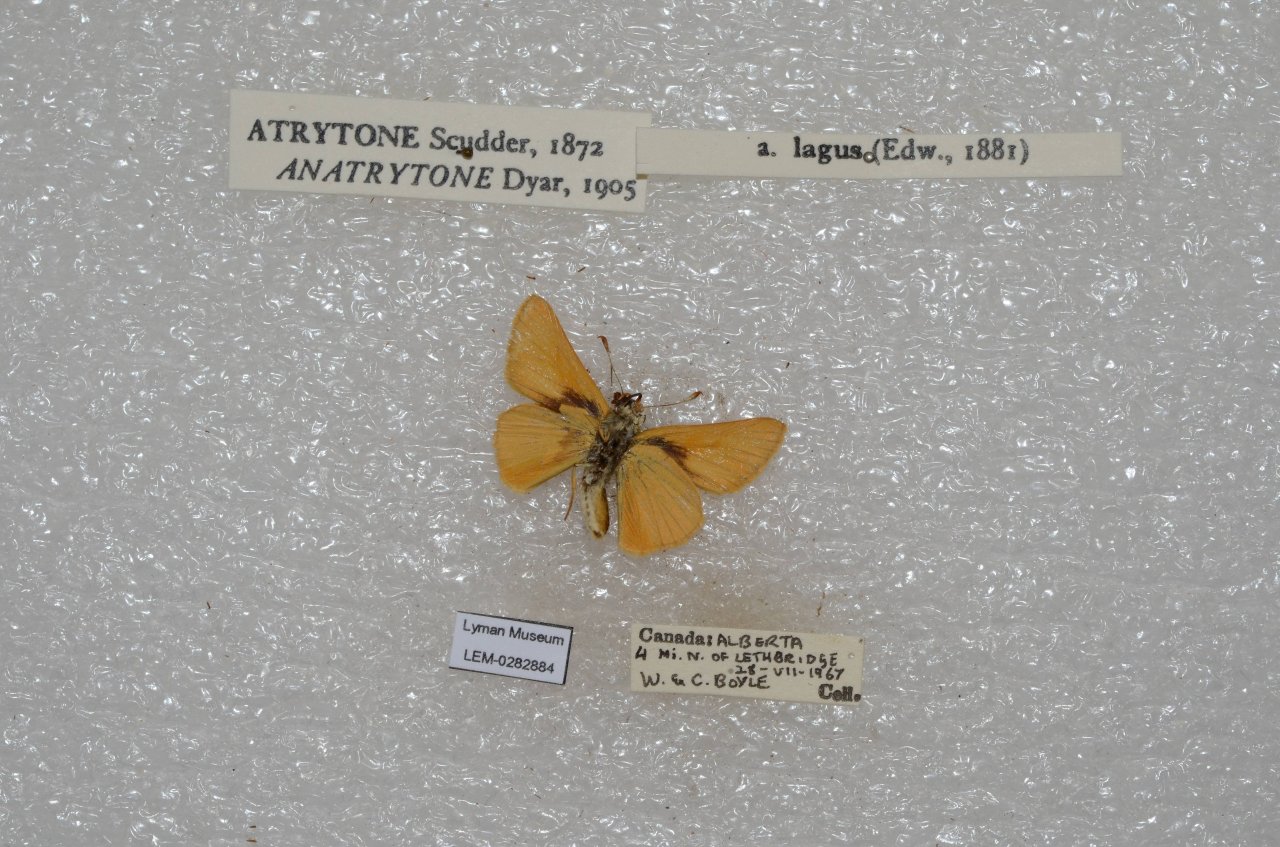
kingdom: Animalia
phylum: Arthropoda
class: Insecta
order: Lepidoptera
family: Hesperiidae
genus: Atrytone
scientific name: Atrytone delaware
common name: Delaware Skipper
